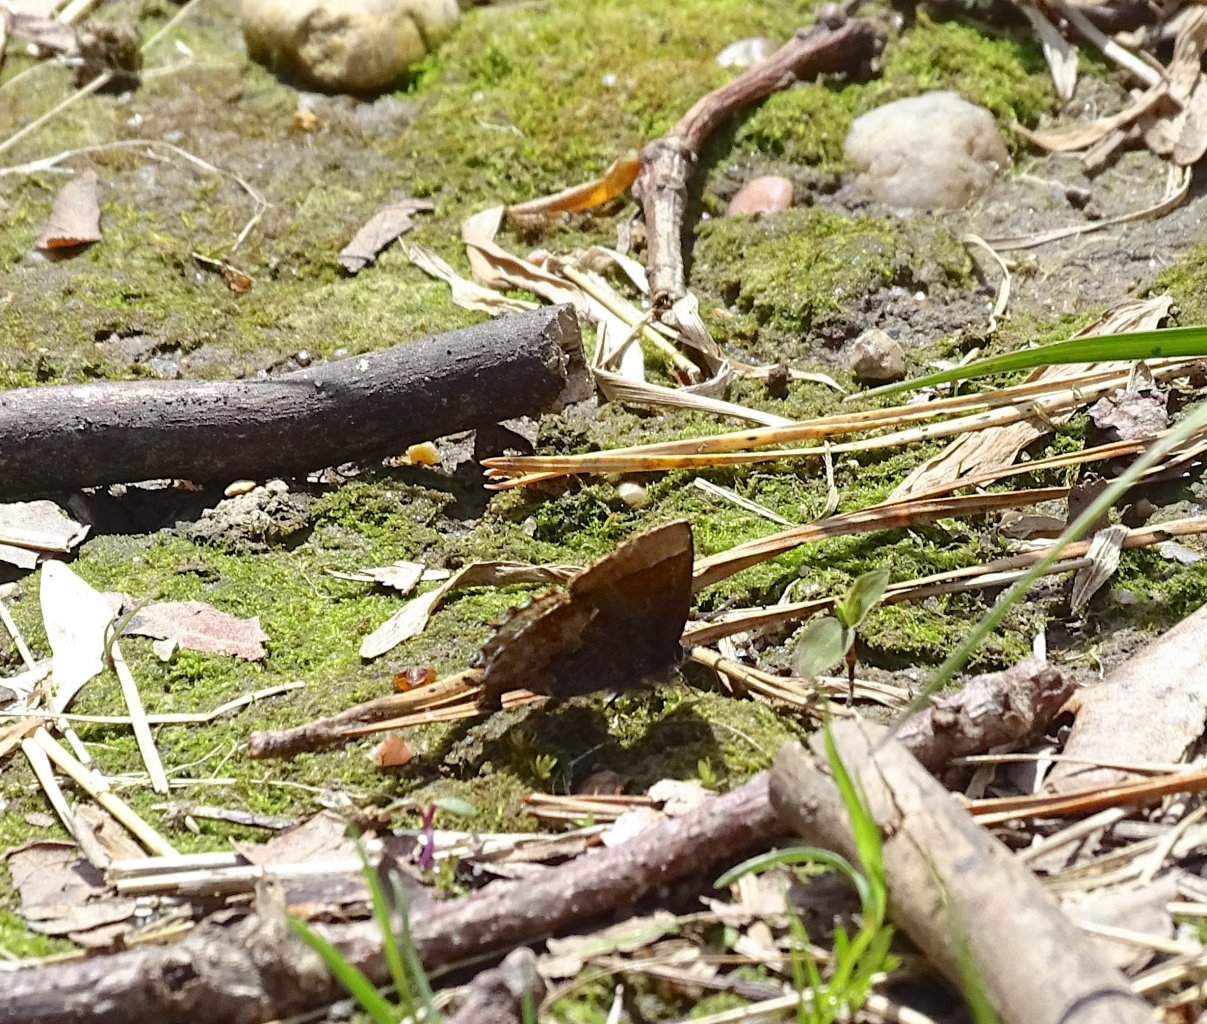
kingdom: Animalia
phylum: Arthropoda
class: Insecta
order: Lepidoptera
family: Lycaenidae
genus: Incisalia
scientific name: Incisalia henrici
